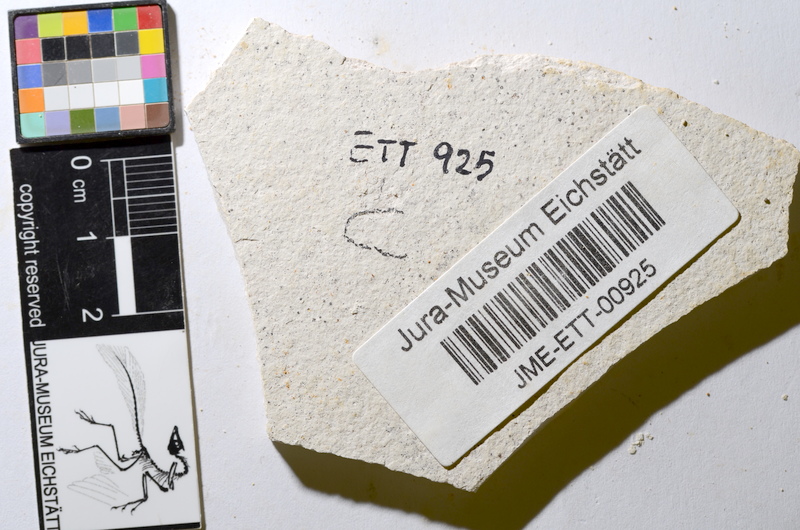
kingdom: Animalia
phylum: Chordata
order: Salmoniformes
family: Orthogonikleithridae
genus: Orthogonikleithrus
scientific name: Orthogonikleithrus hoelli
